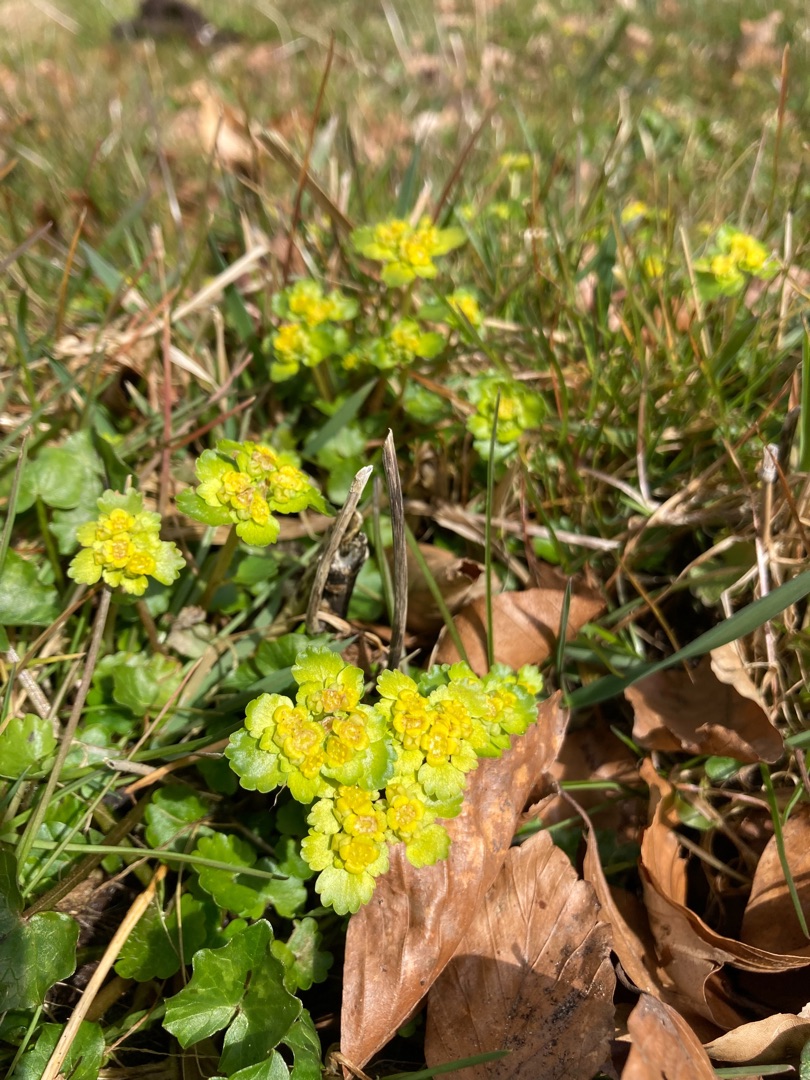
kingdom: Plantae
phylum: Tracheophyta
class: Magnoliopsida
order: Saxifragales
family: Saxifragaceae
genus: Chrysosplenium
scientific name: Chrysosplenium alternifolium
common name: Almindelig milturt
